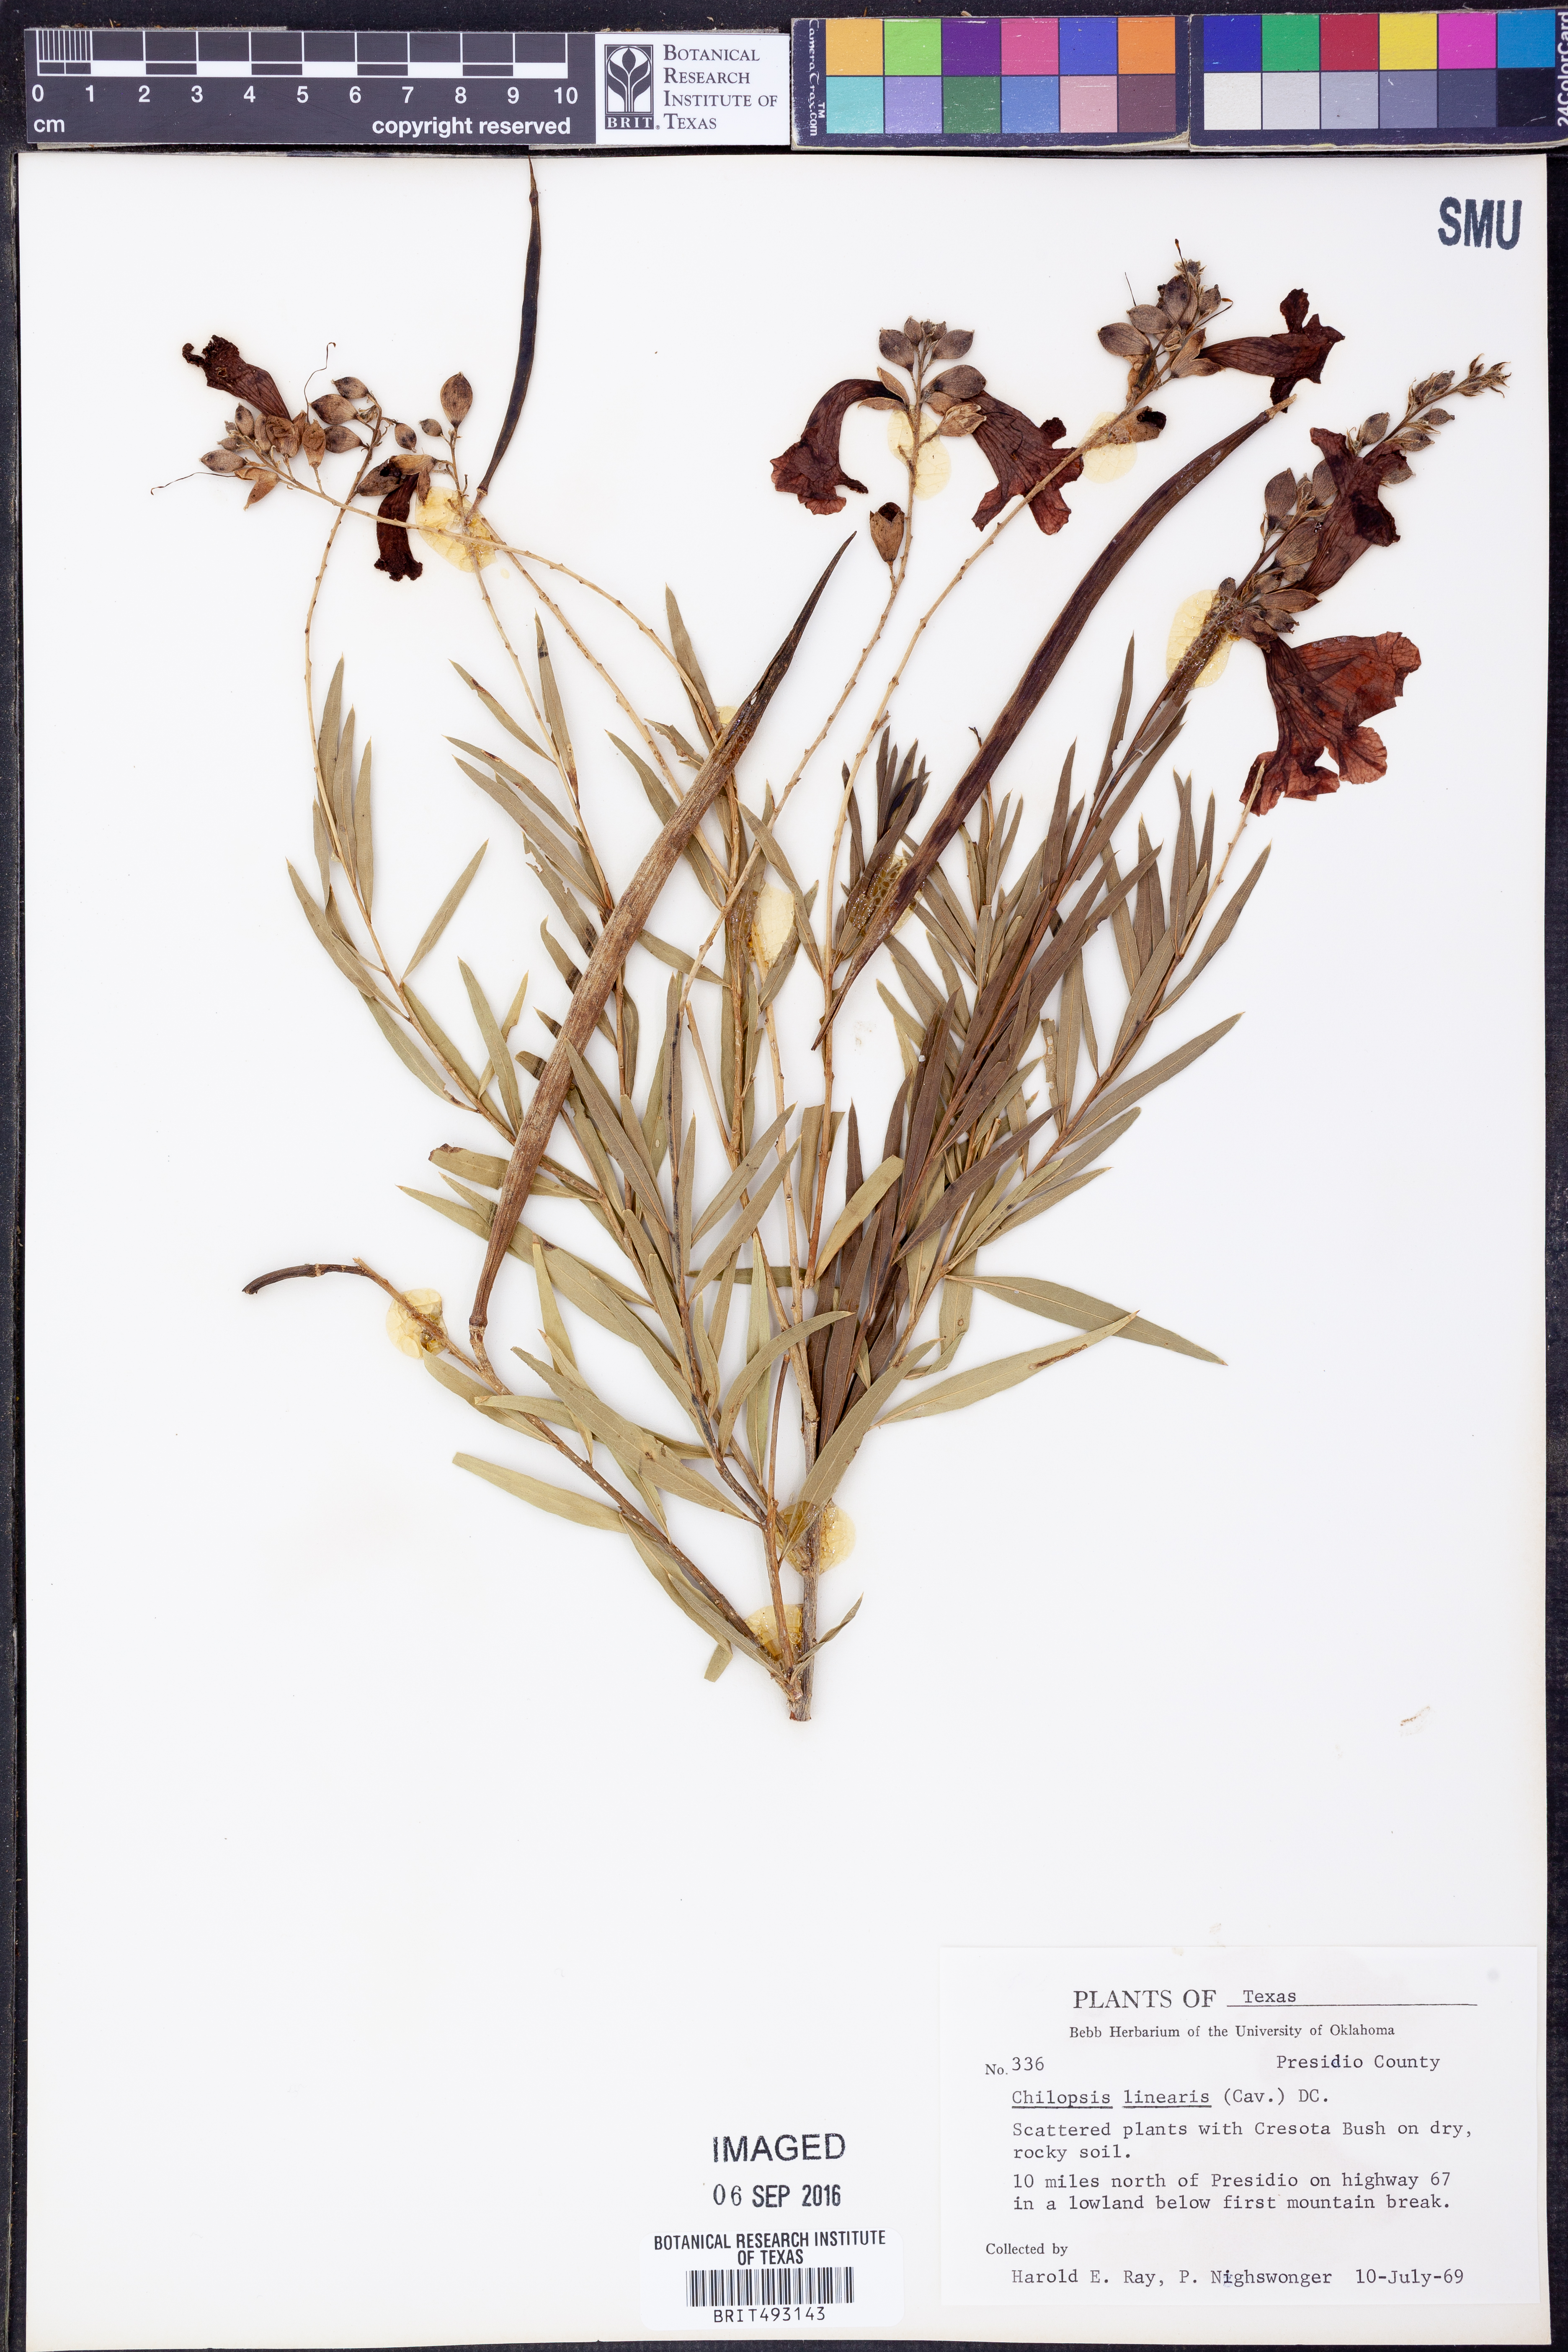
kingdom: Plantae
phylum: Tracheophyta
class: Magnoliopsida
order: Lamiales
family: Bignoniaceae
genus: Chilopsis
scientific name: Chilopsis linearis
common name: Desert-willow
